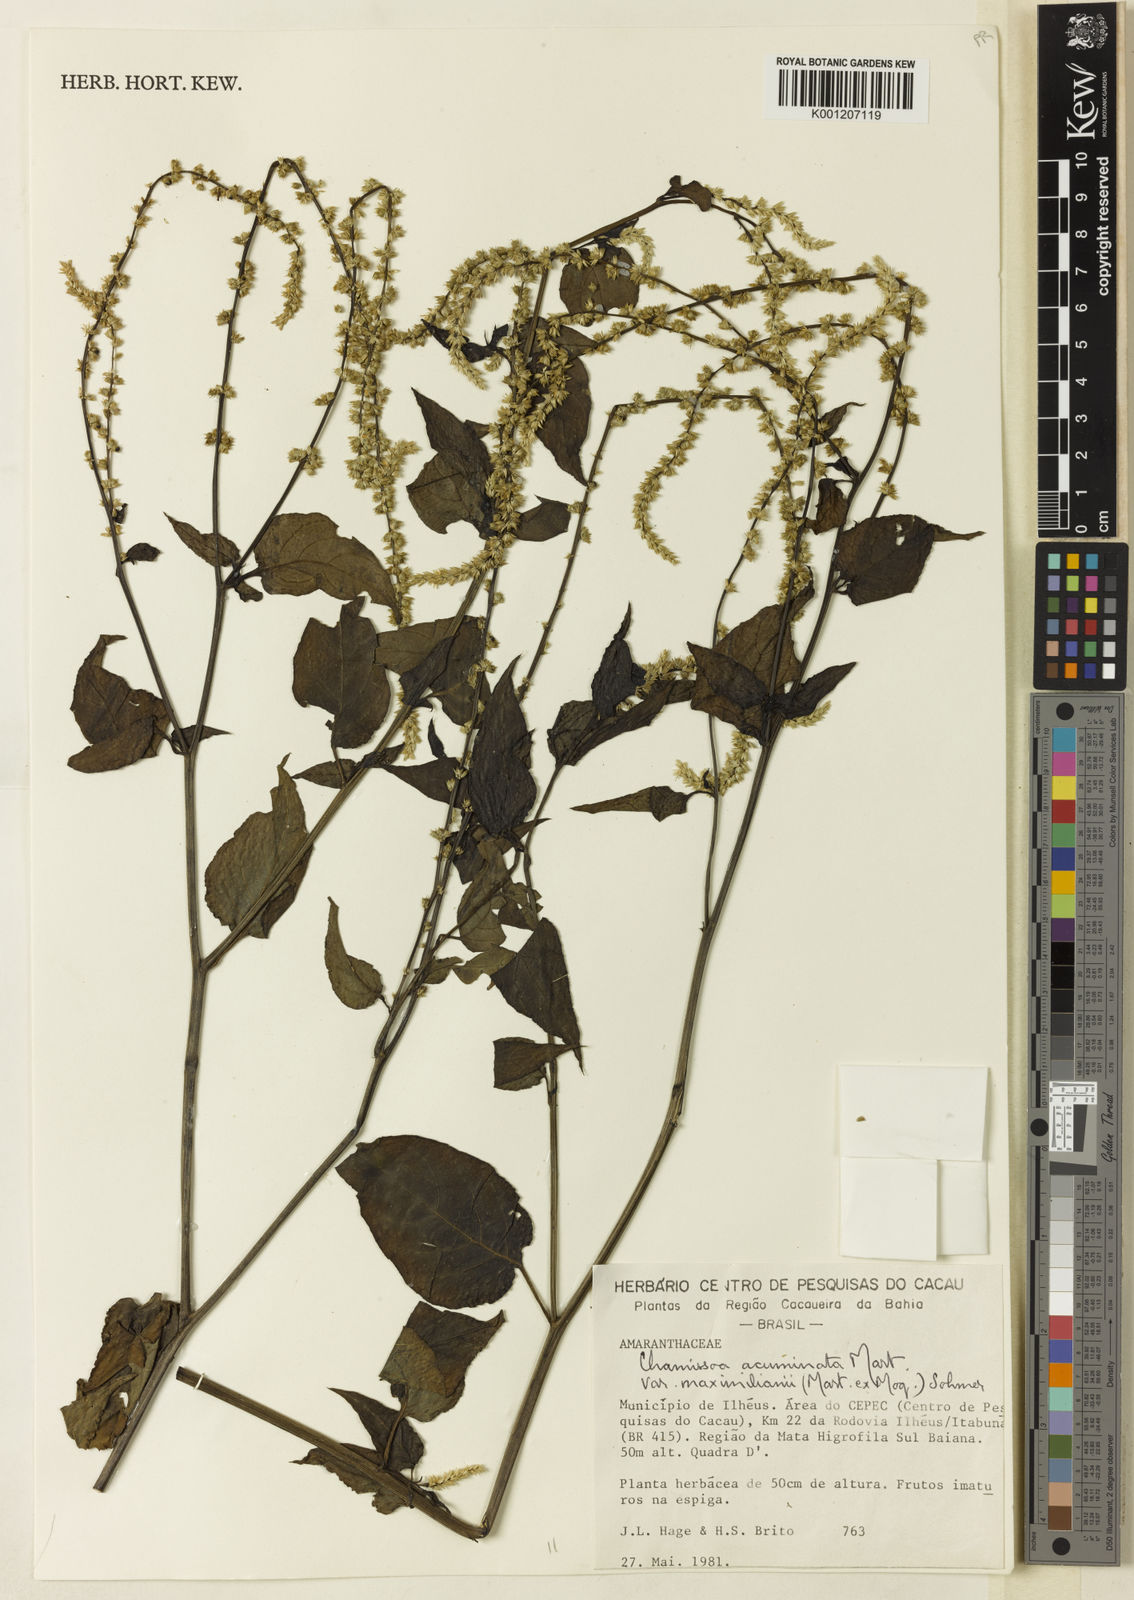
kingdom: Plantae
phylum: Tracheophyta
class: Magnoliopsida
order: Caryophyllales
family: Amaranthaceae
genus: Chamissoa
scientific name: Chamissoa maximiliani
